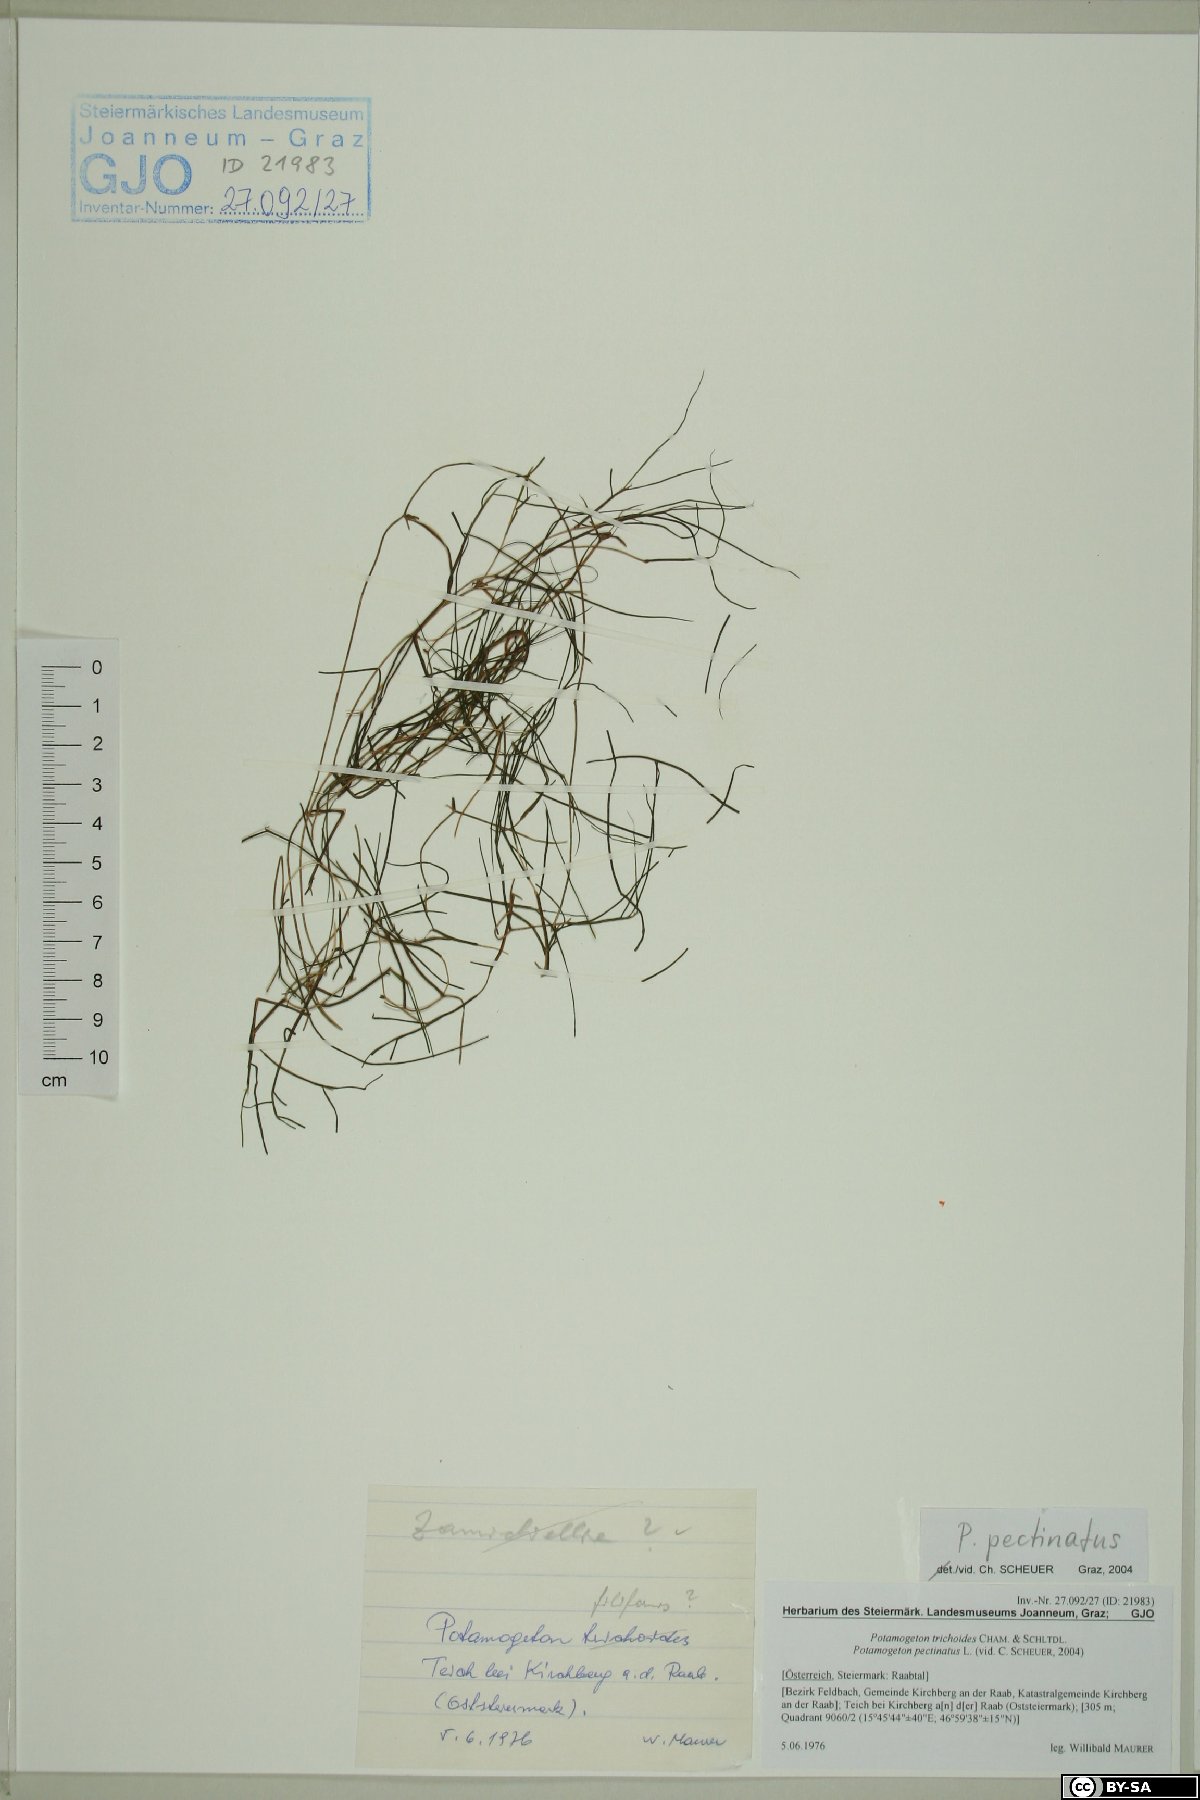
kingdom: Plantae
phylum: Tracheophyta
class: Liliopsida
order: Alismatales
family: Potamogetonaceae
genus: Stuckenia
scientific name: Stuckenia pectinata
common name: Sago pondweed
